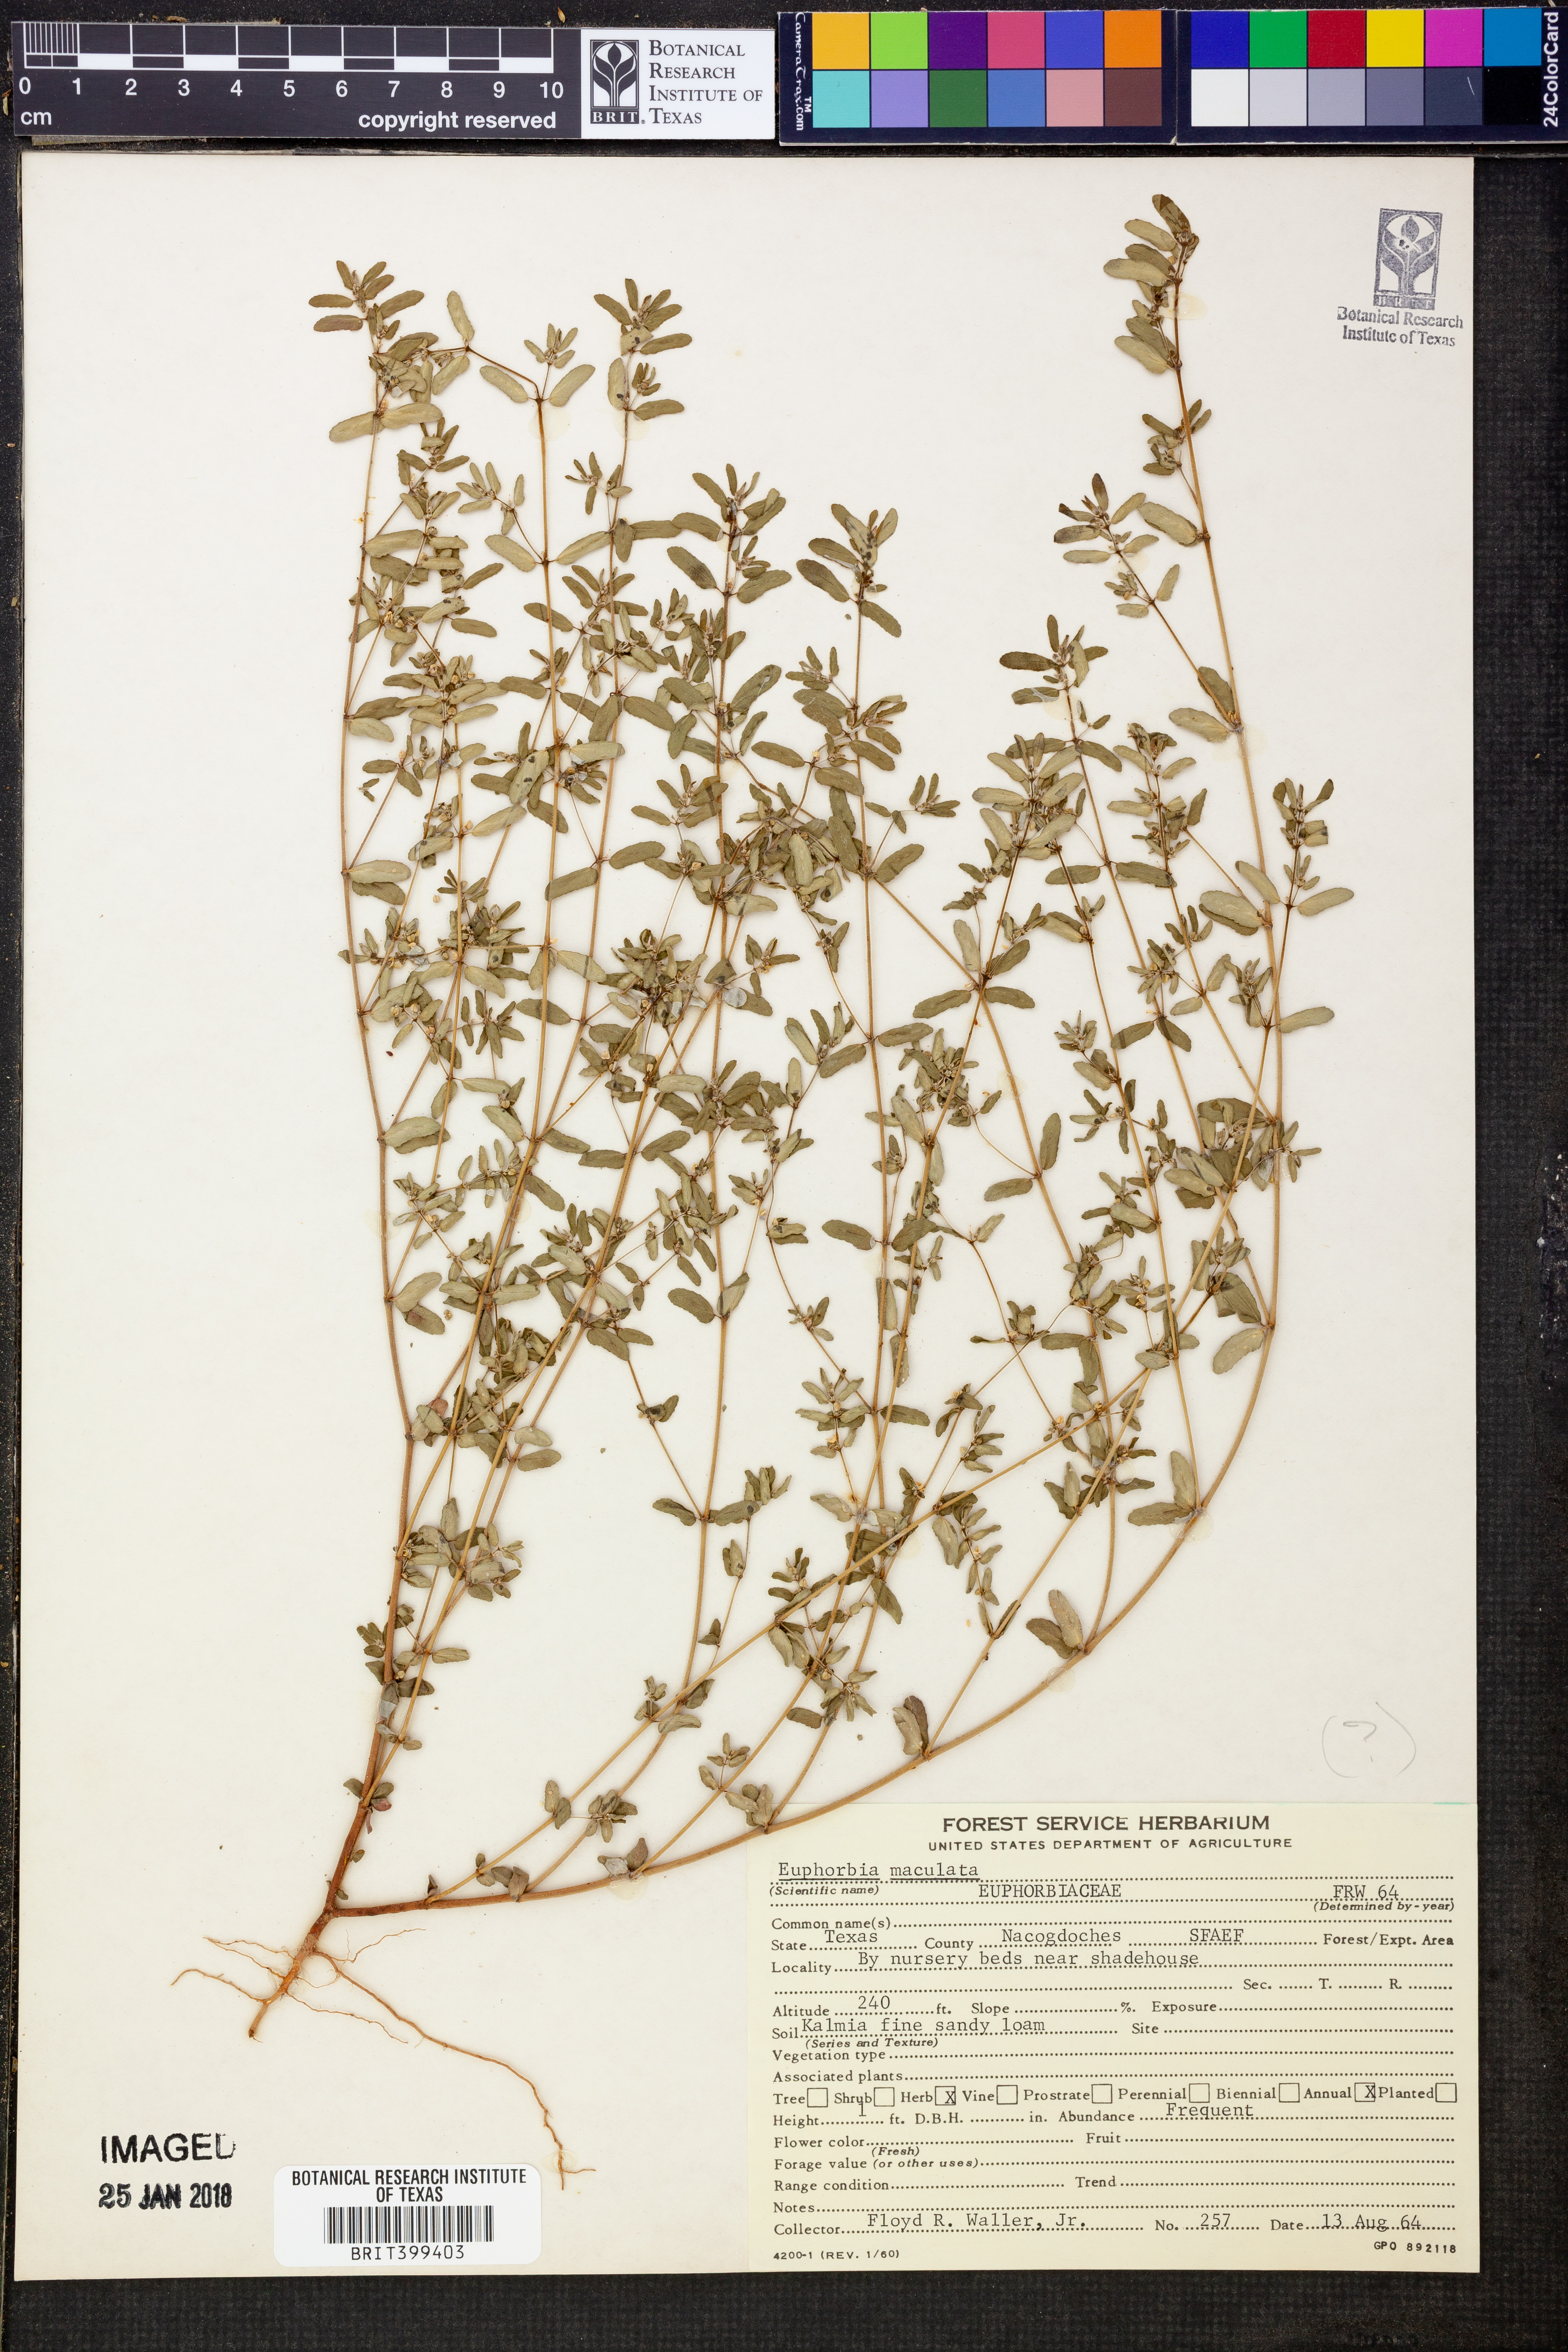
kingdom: Plantae
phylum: Tracheophyta
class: Magnoliopsida
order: Malpighiales
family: Euphorbiaceae
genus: Euphorbia
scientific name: Euphorbia maculata
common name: Spotted spurge
